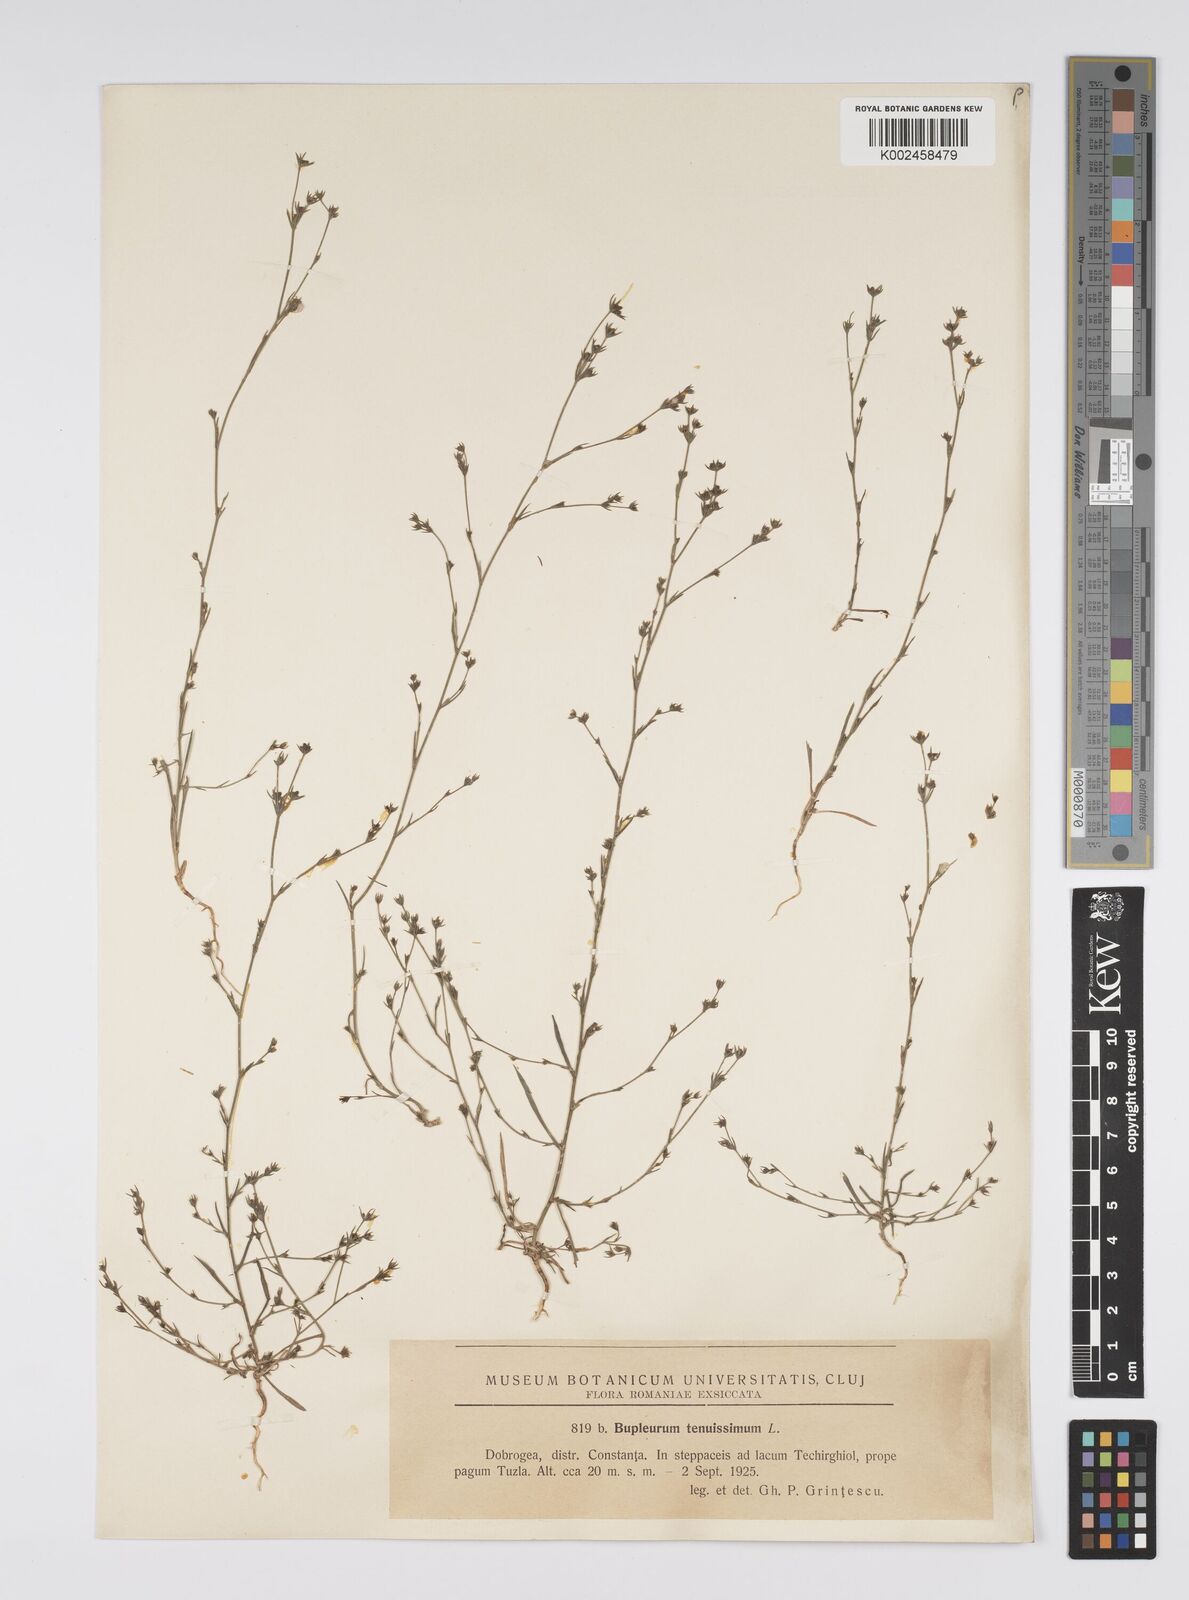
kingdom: Plantae
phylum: Tracheophyta
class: Magnoliopsida
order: Apiales
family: Apiaceae
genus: Bupleurum
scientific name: Bupleurum tenuissimum
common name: Slender hare's-ear
